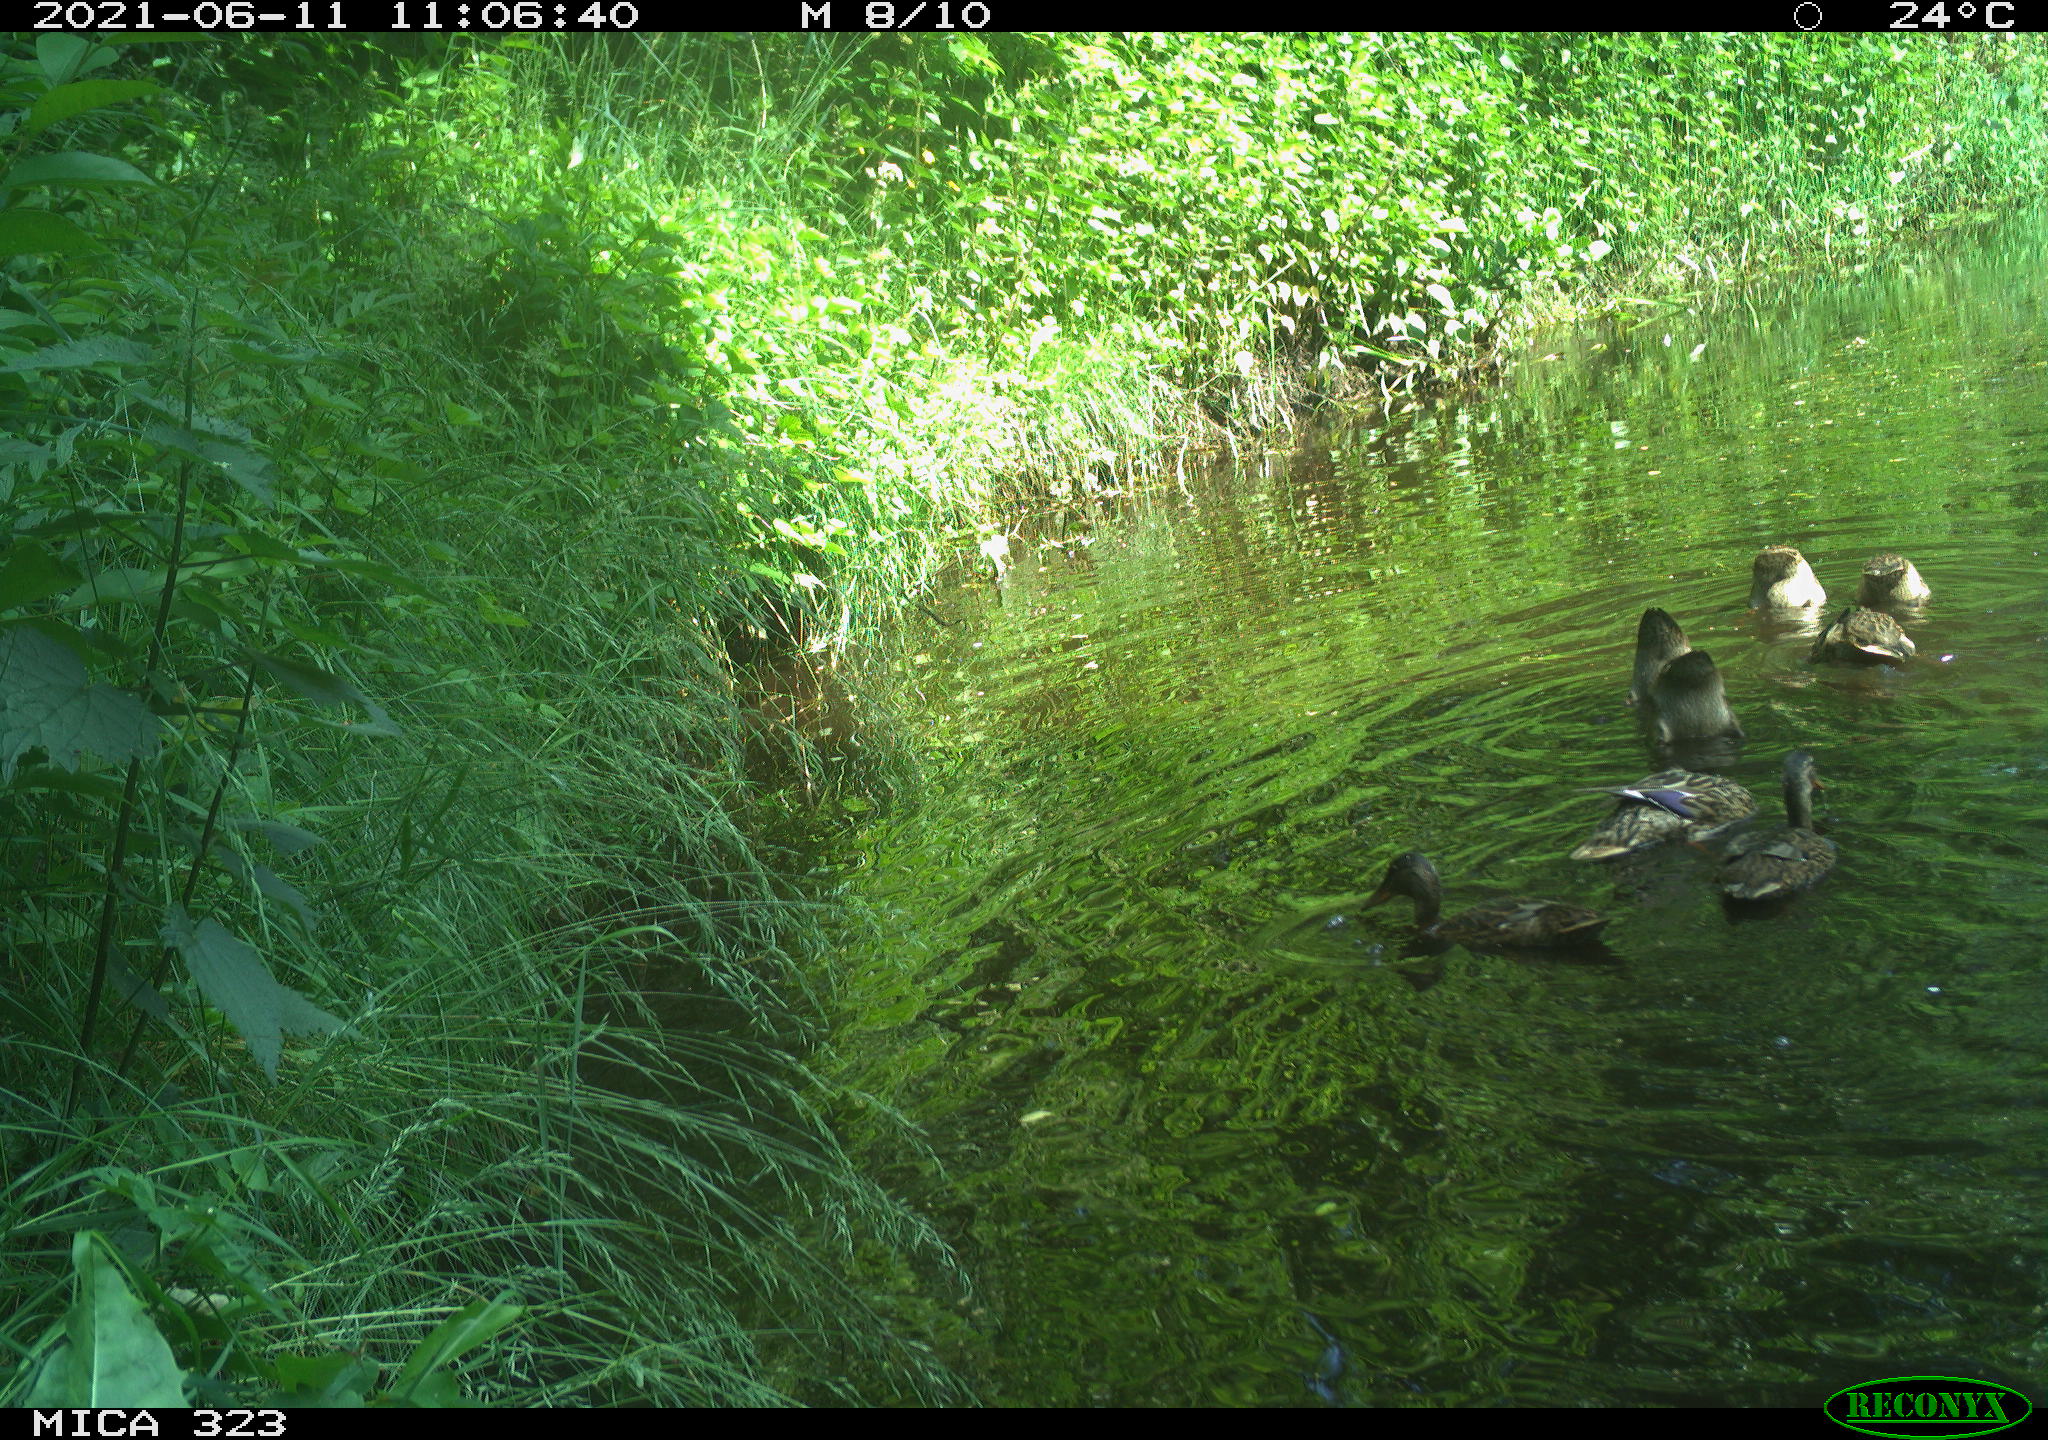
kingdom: Animalia
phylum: Chordata
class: Aves
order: Anseriformes
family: Anatidae
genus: Anas
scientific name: Anas platyrhynchos
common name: Mallard
